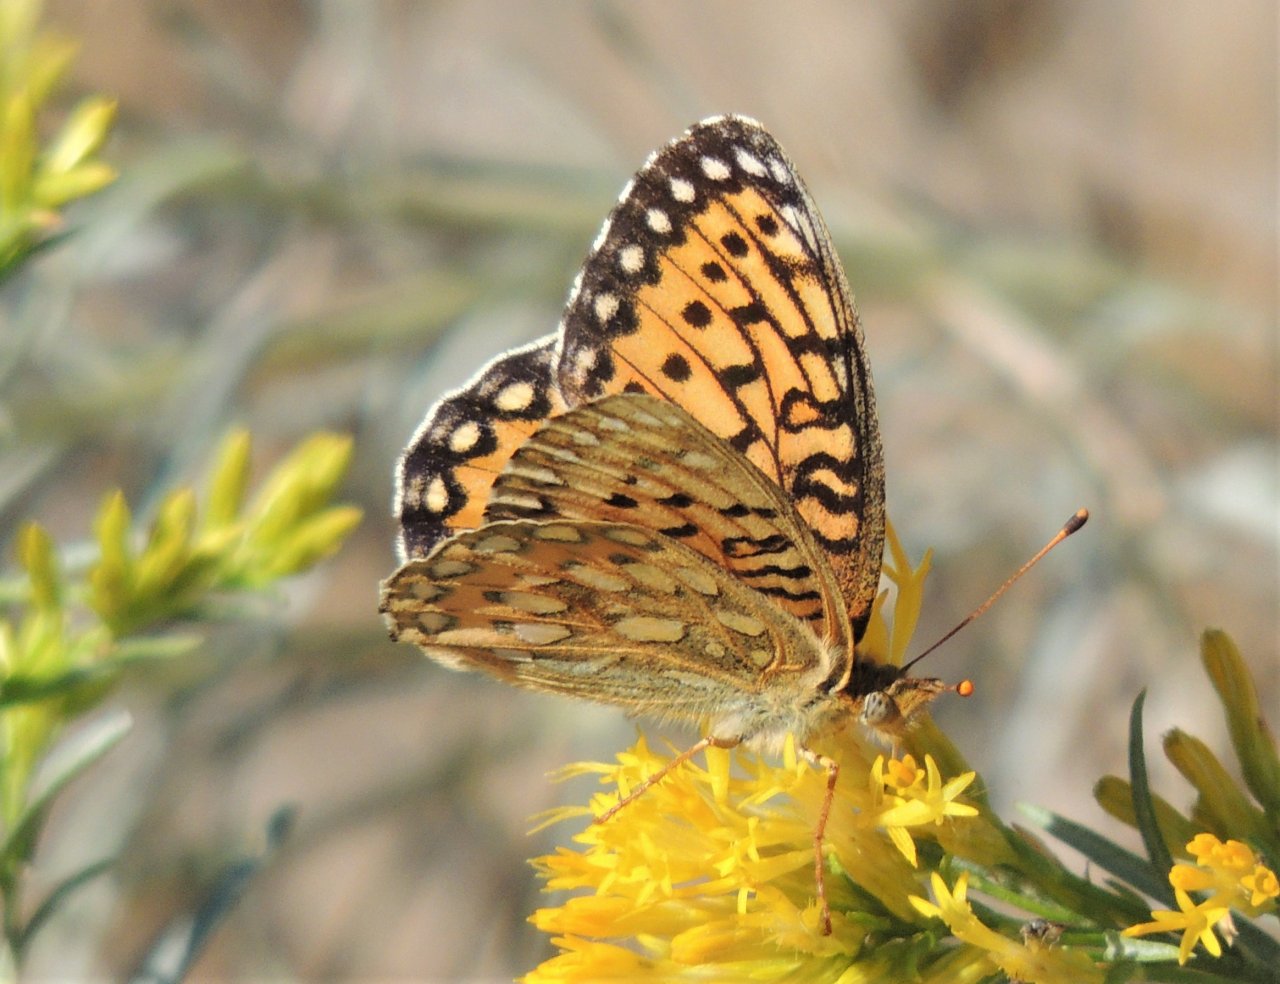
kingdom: Animalia
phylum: Arthropoda
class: Insecta
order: Lepidoptera
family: Nymphalidae
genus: Speyeria
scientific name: Speyeria mormonia
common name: Mormon Fritillary
